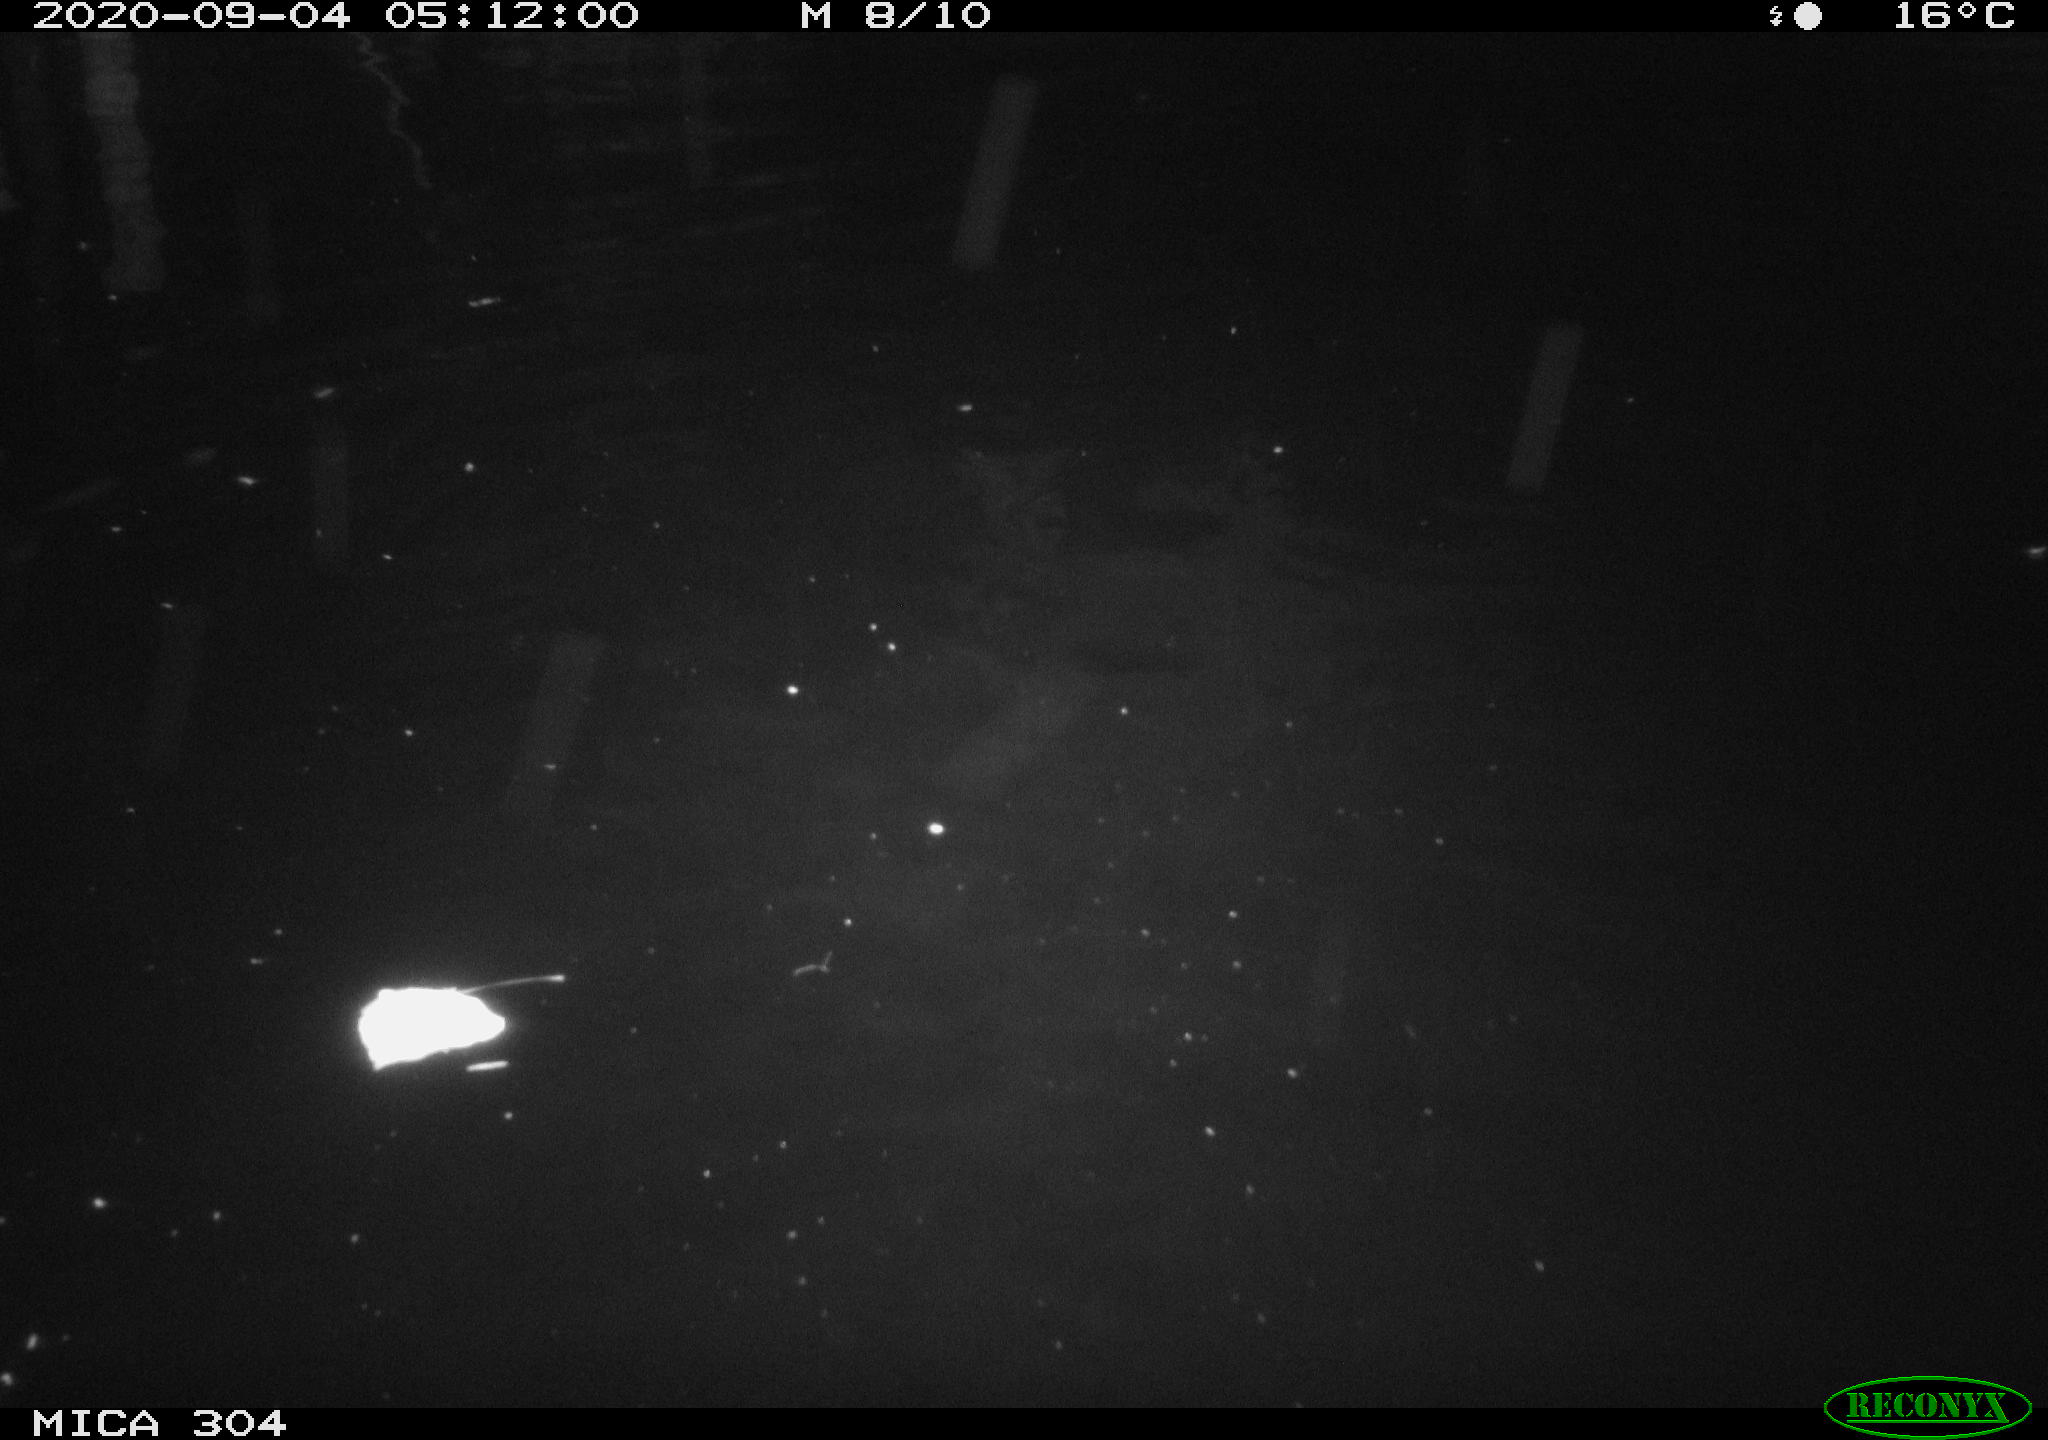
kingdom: Animalia
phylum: Chordata
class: Mammalia
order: Rodentia
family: Cricetidae
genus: Ondatra
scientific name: Ondatra zibethicus
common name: Muskrat
